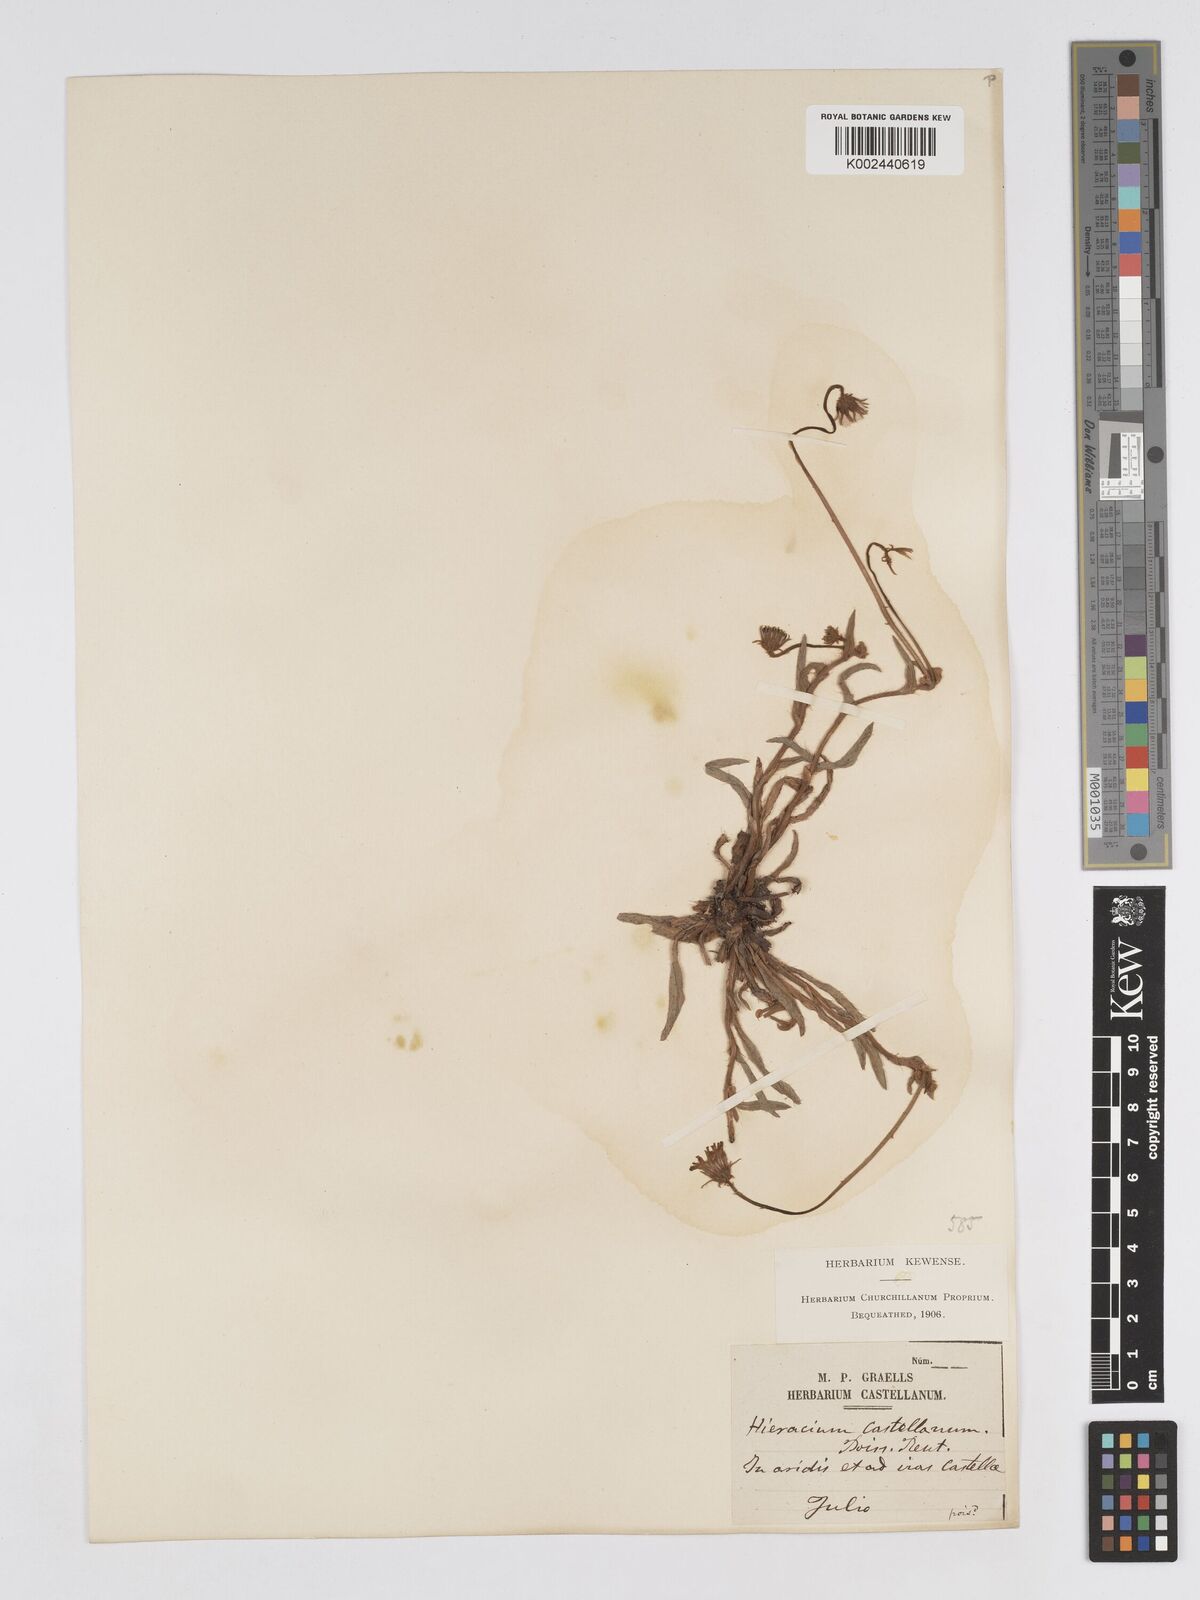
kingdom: Plantae
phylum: Tracheophyta
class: Magnoliopsida
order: Asterales
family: Asteraceae
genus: Pilosella
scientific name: Pilosella castellana
